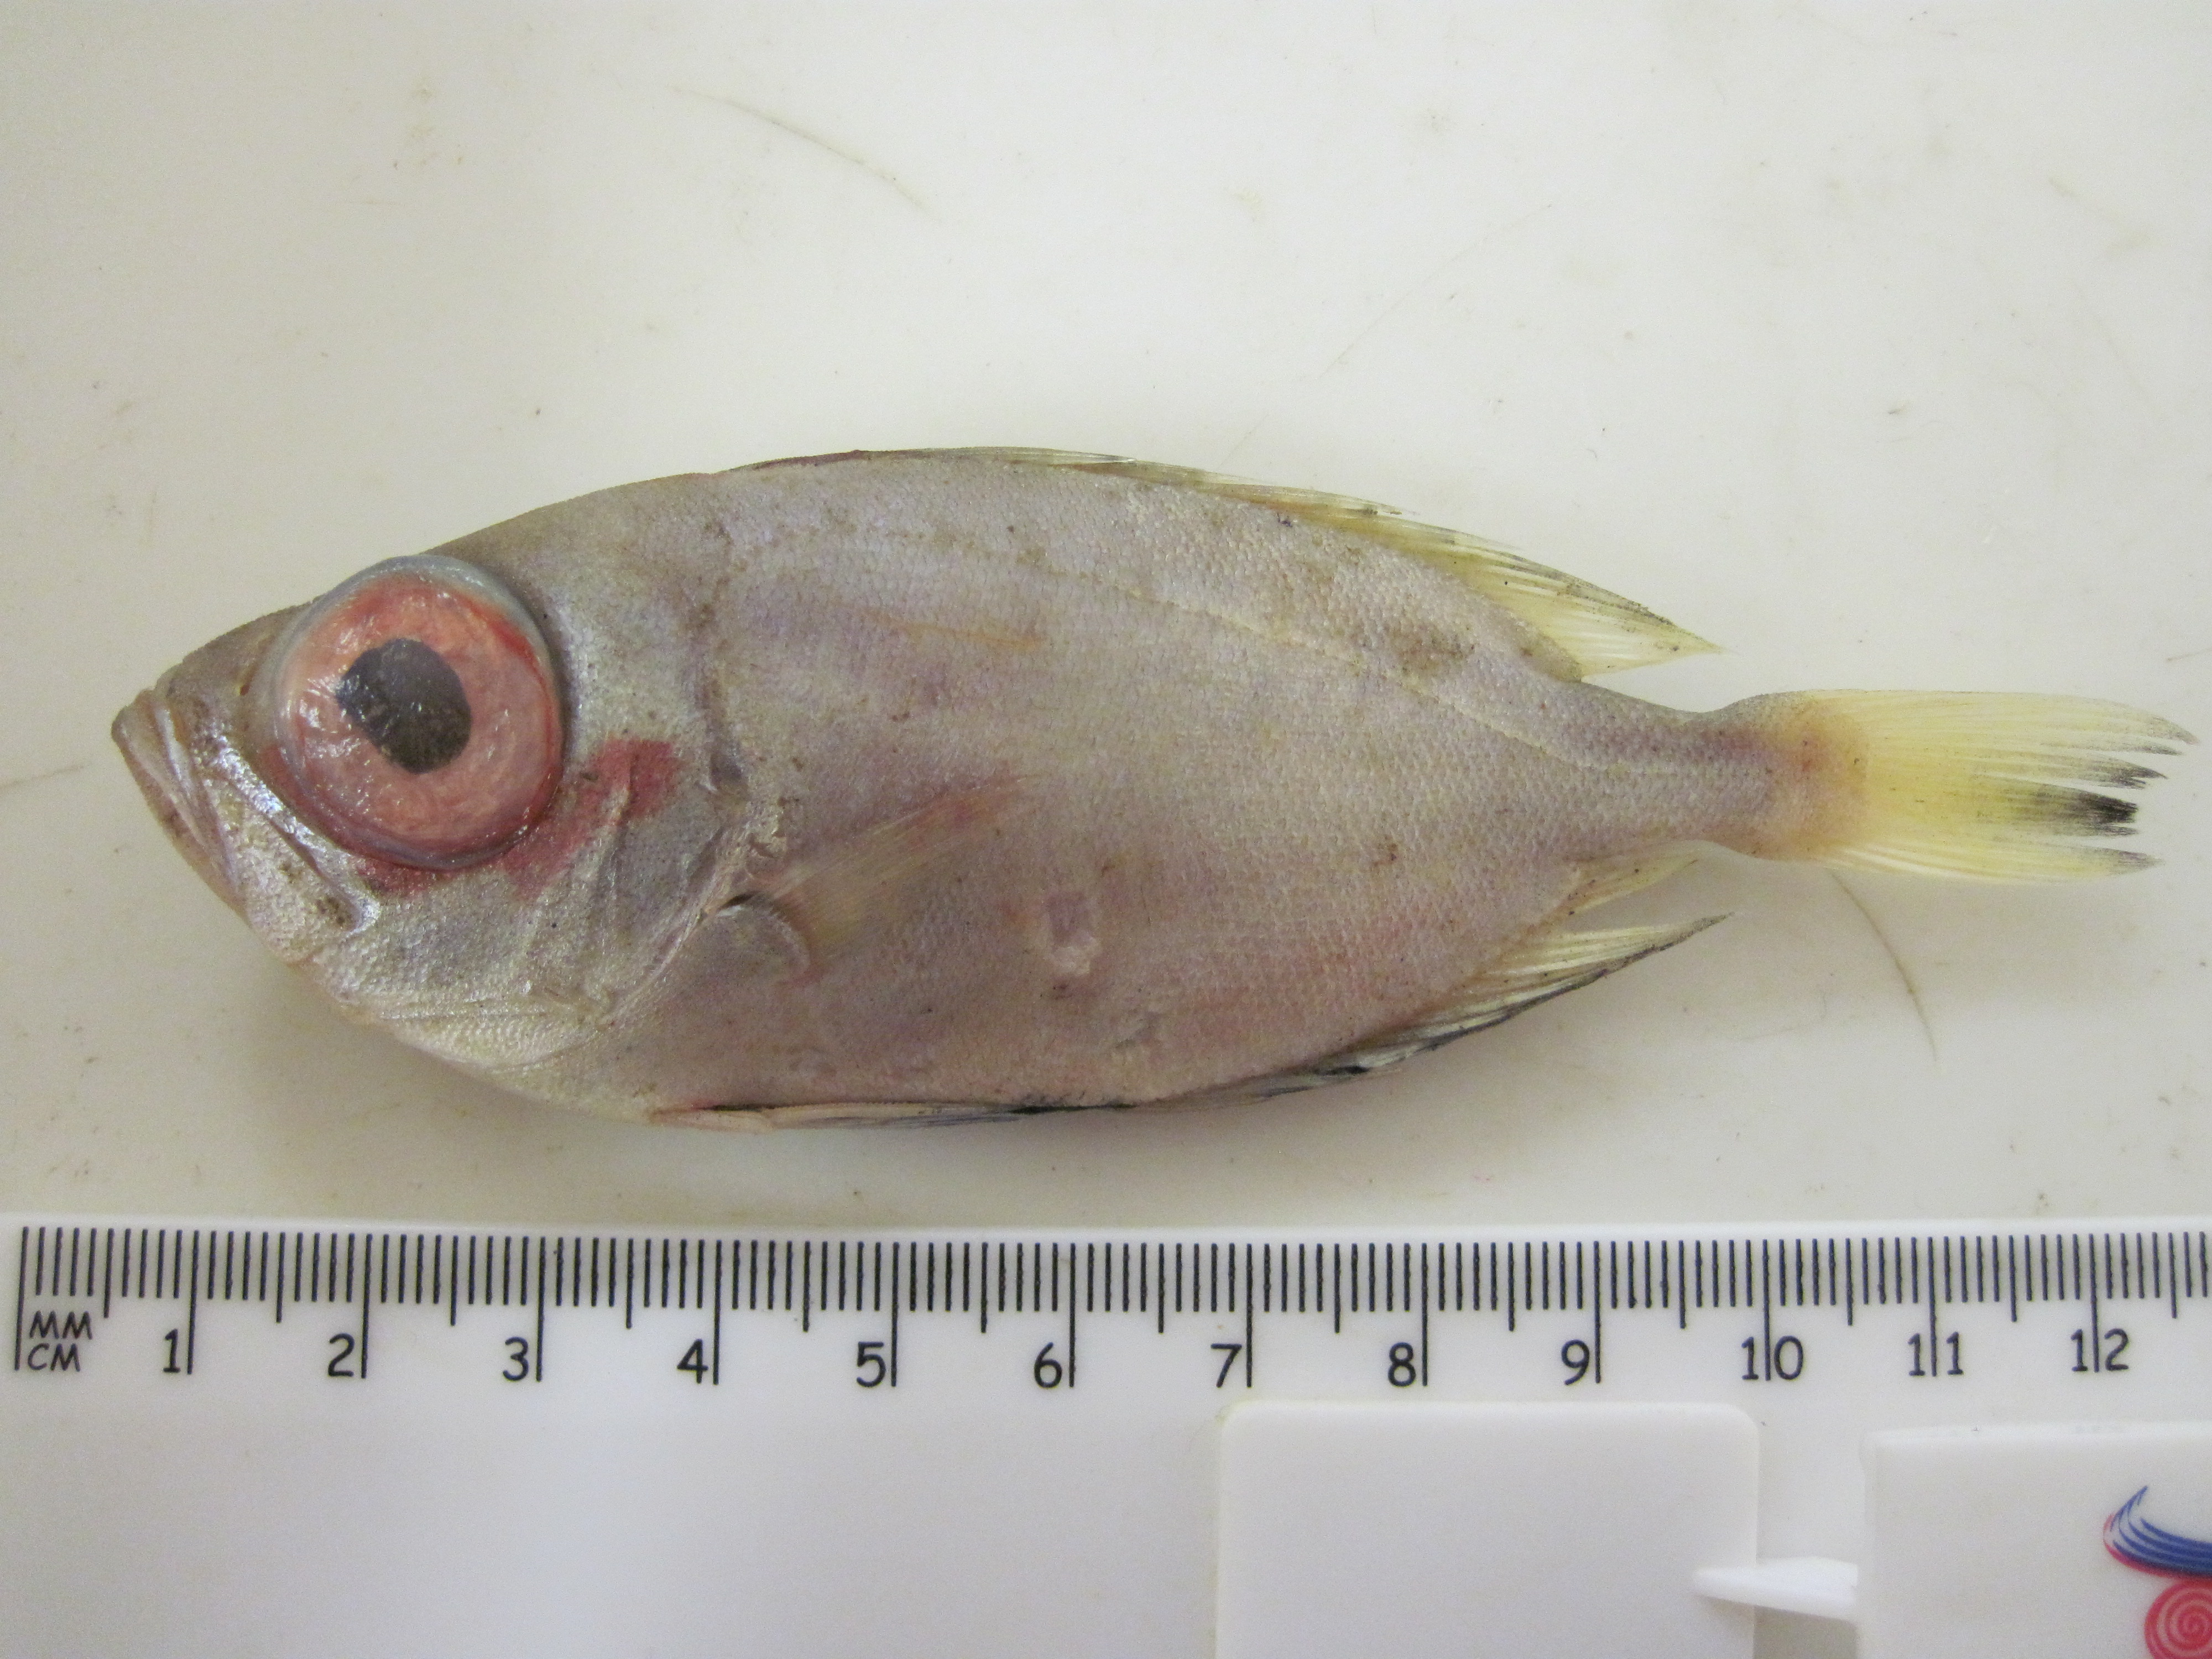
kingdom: Animalia
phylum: Chordata
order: Perciformes
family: Priacanthidae
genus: Priacanthus
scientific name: Priacanthus fitchi
